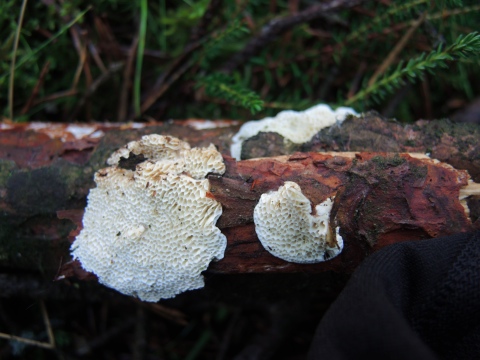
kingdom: Fungi
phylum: Basidiomycota
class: Agaricomycetes
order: Polyporales
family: Fomitopsidaceae
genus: Fomitopsis
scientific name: Fomitopsis
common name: fyrre-skiveporesvamp
